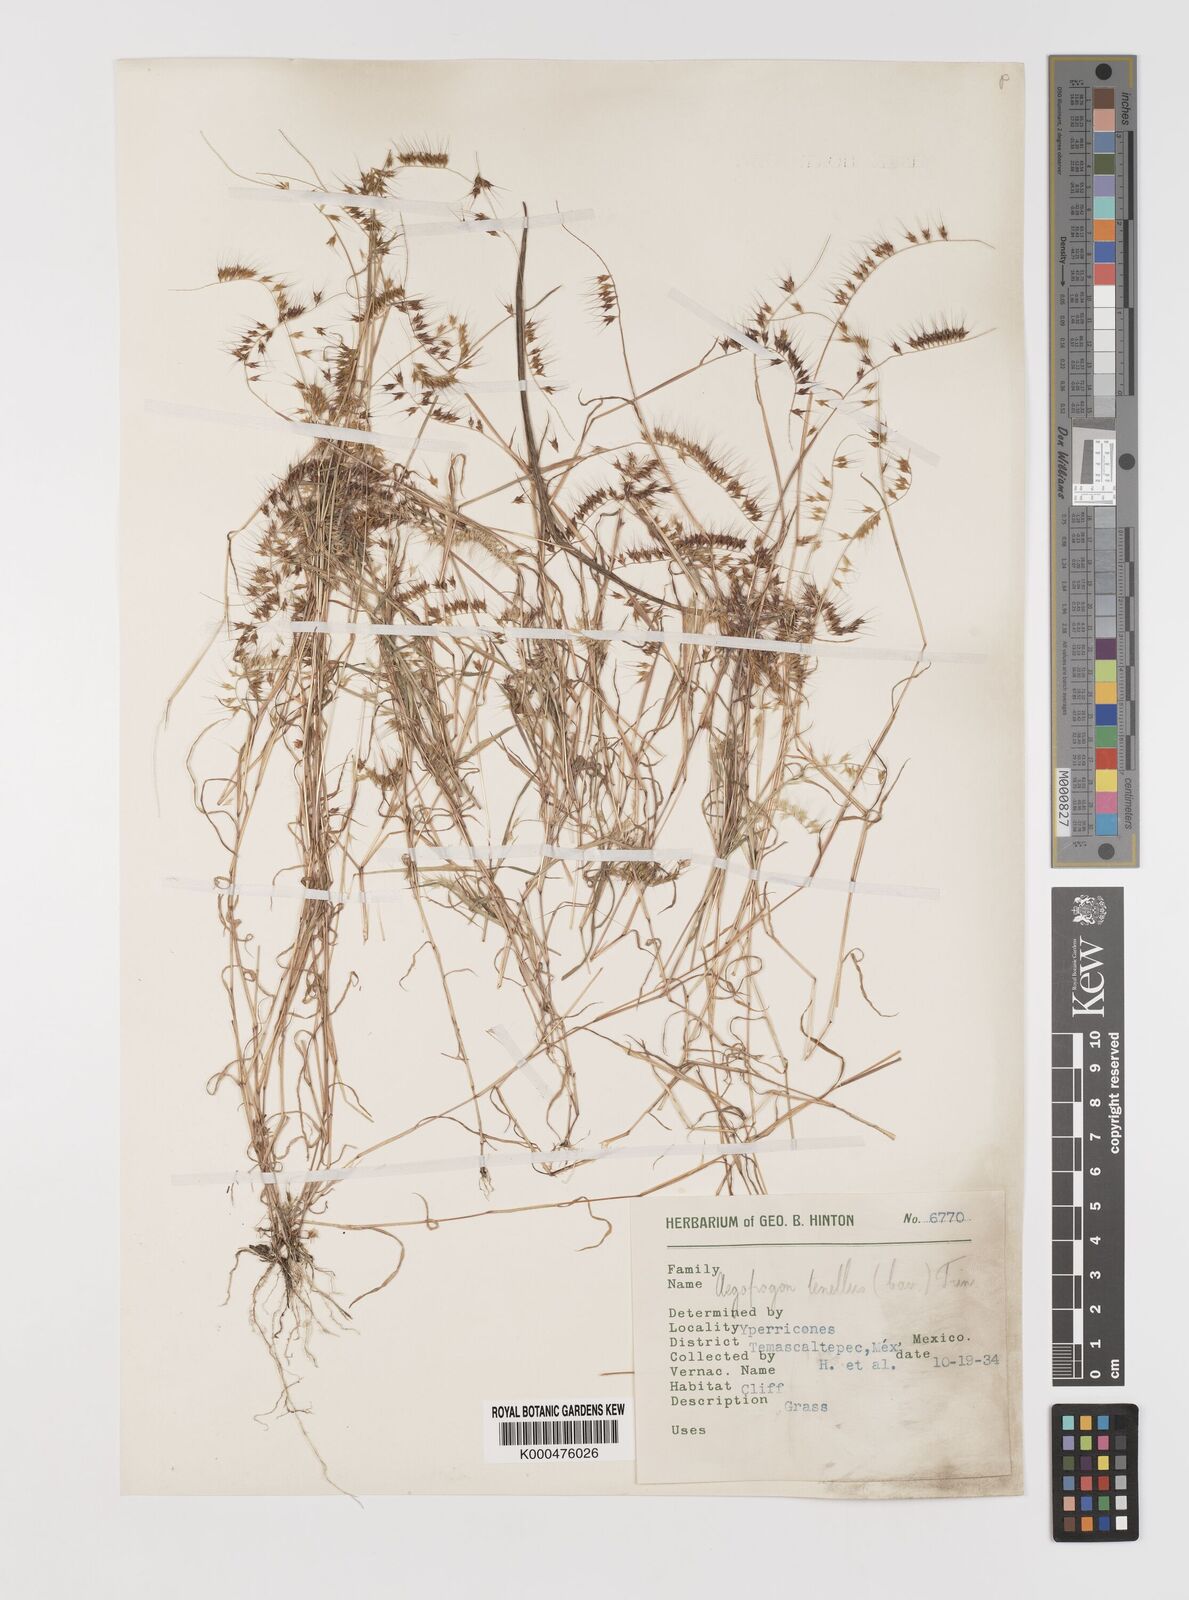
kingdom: Plantae
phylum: Tracheophyta
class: Liliopsida
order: Poales
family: Poaceae
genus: Muhlenbergia
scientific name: Muhlenbergia uniseta
